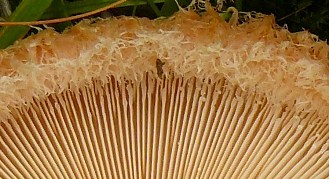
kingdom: Fungi
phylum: Basidiomycota
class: Agaricomycetes
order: Russulales
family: Russulaceae
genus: Lactarius
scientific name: Lactarius pubescens
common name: dunet mælkehat
